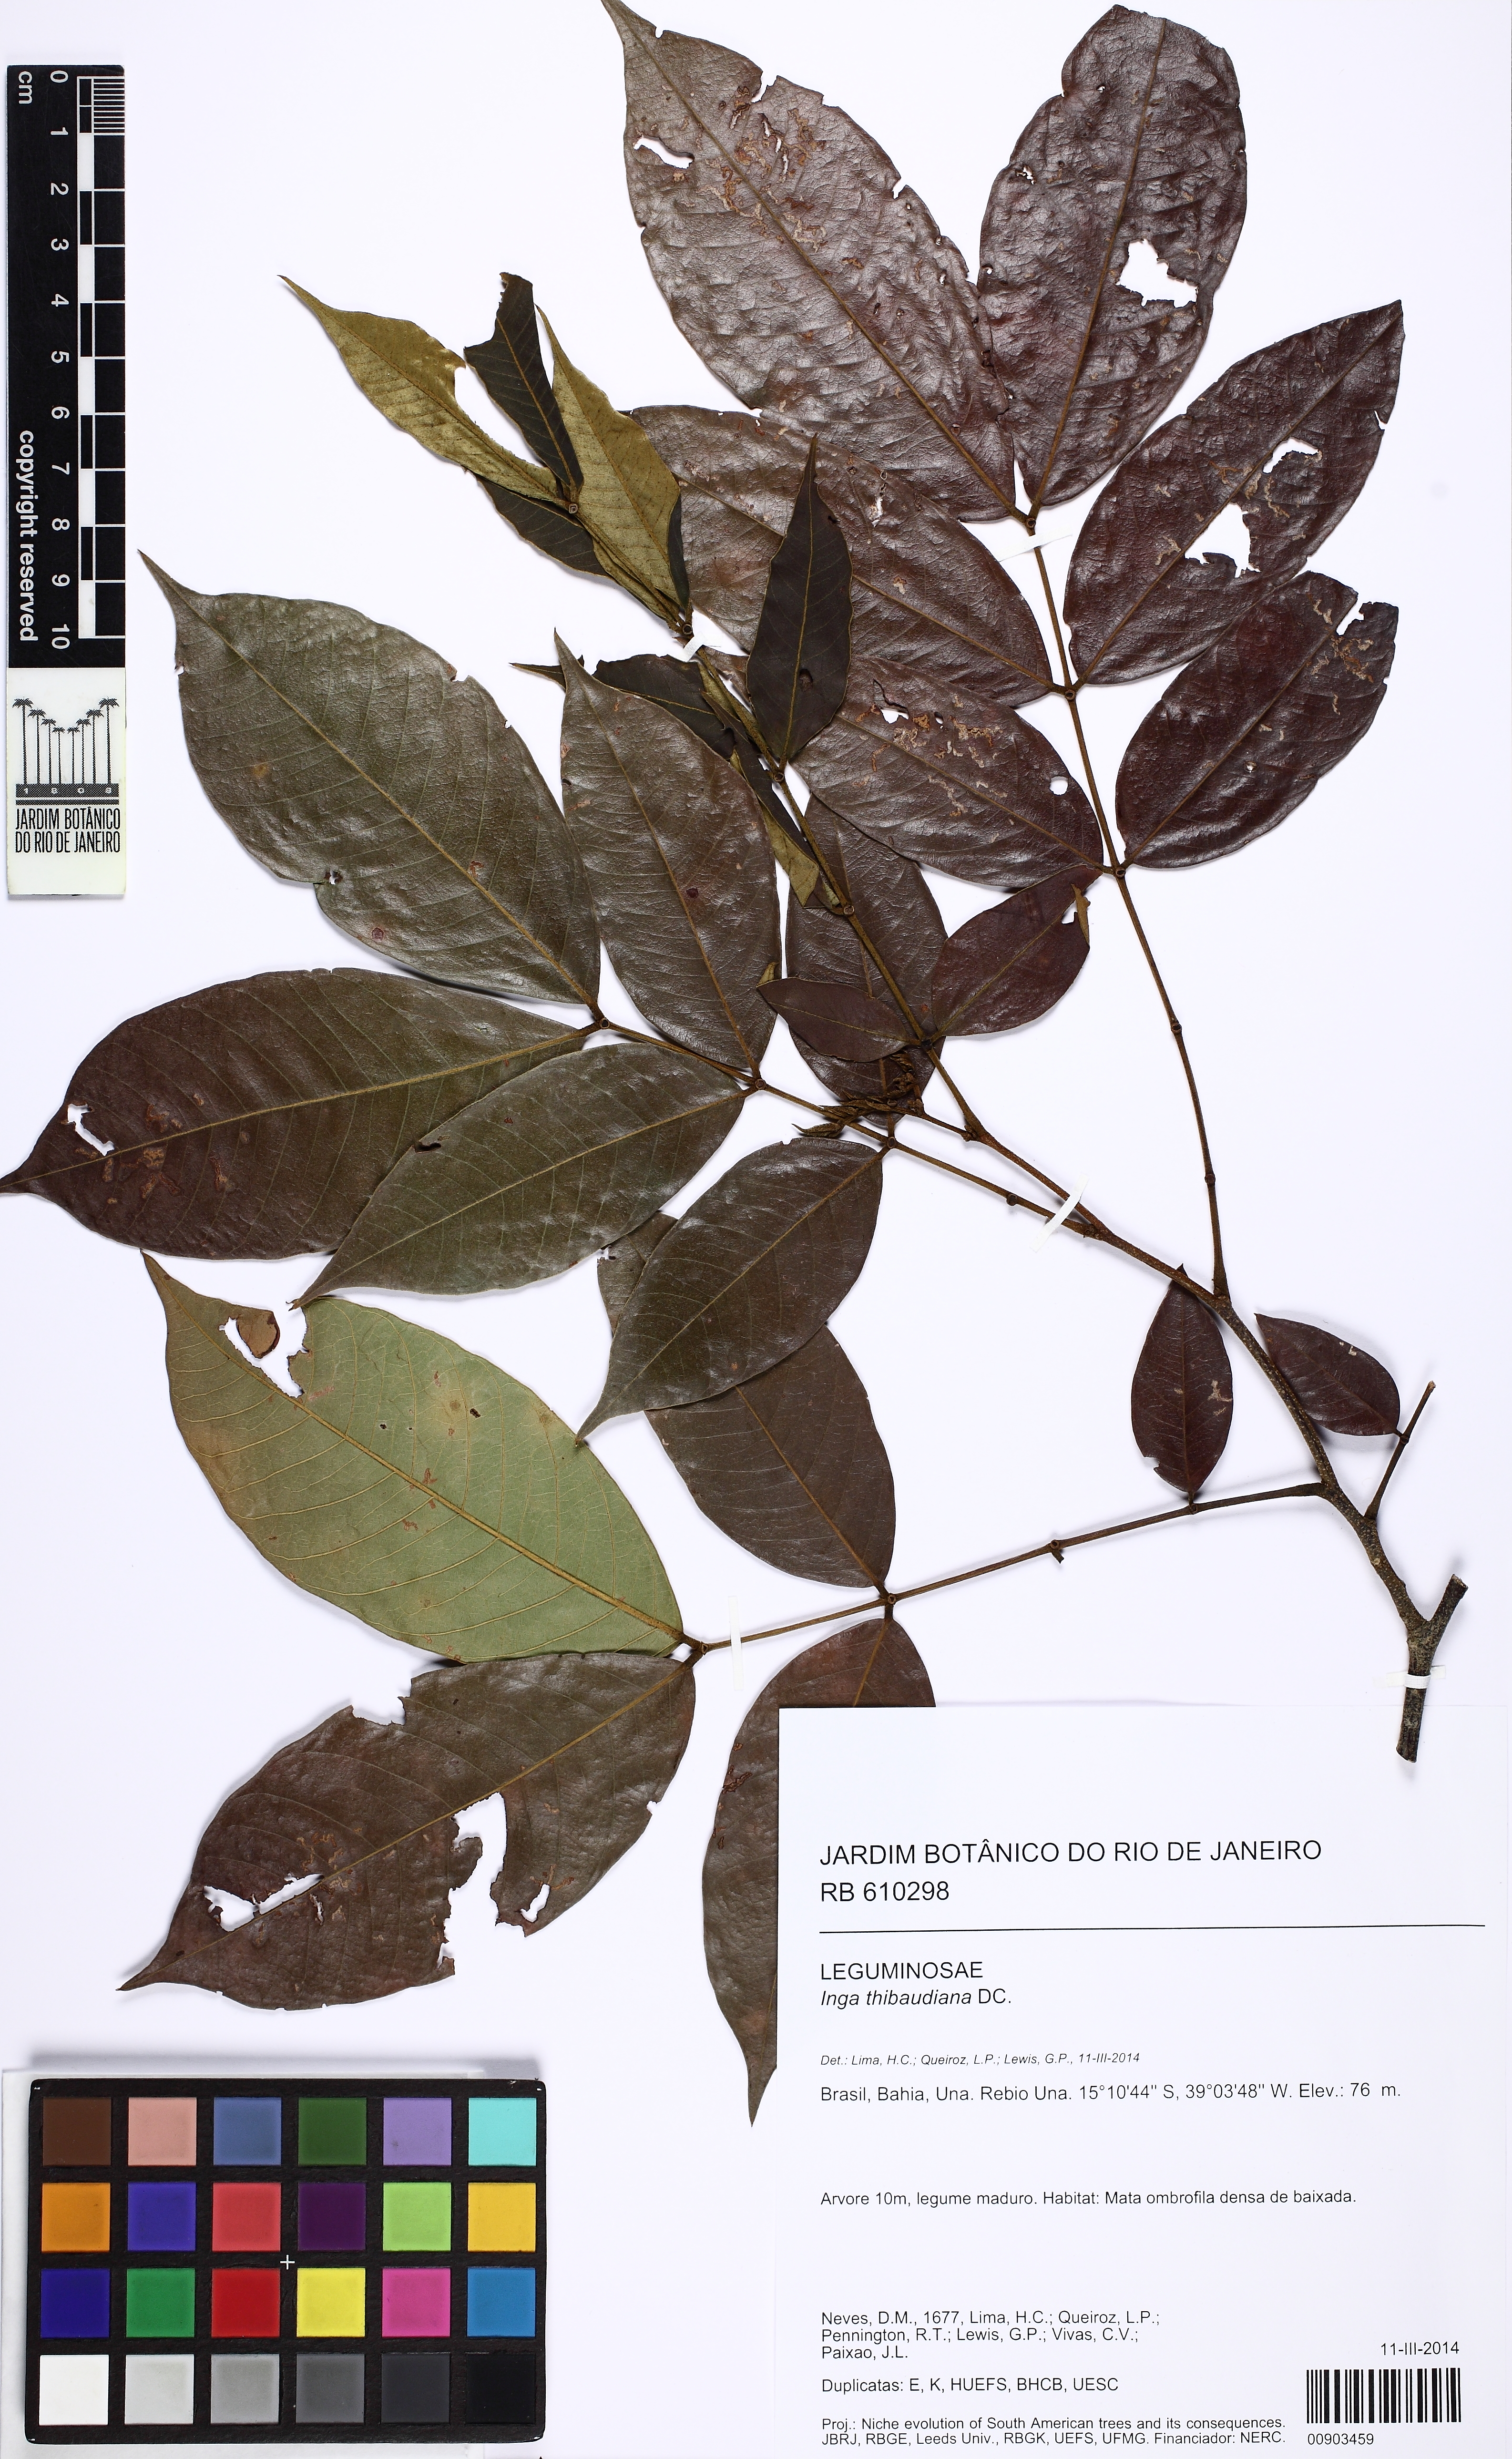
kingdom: Plantae
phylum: Tracheophyta
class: Magnoliopsida
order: Fabales
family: Fabaceae
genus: Inga
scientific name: Inga thibaudiana
